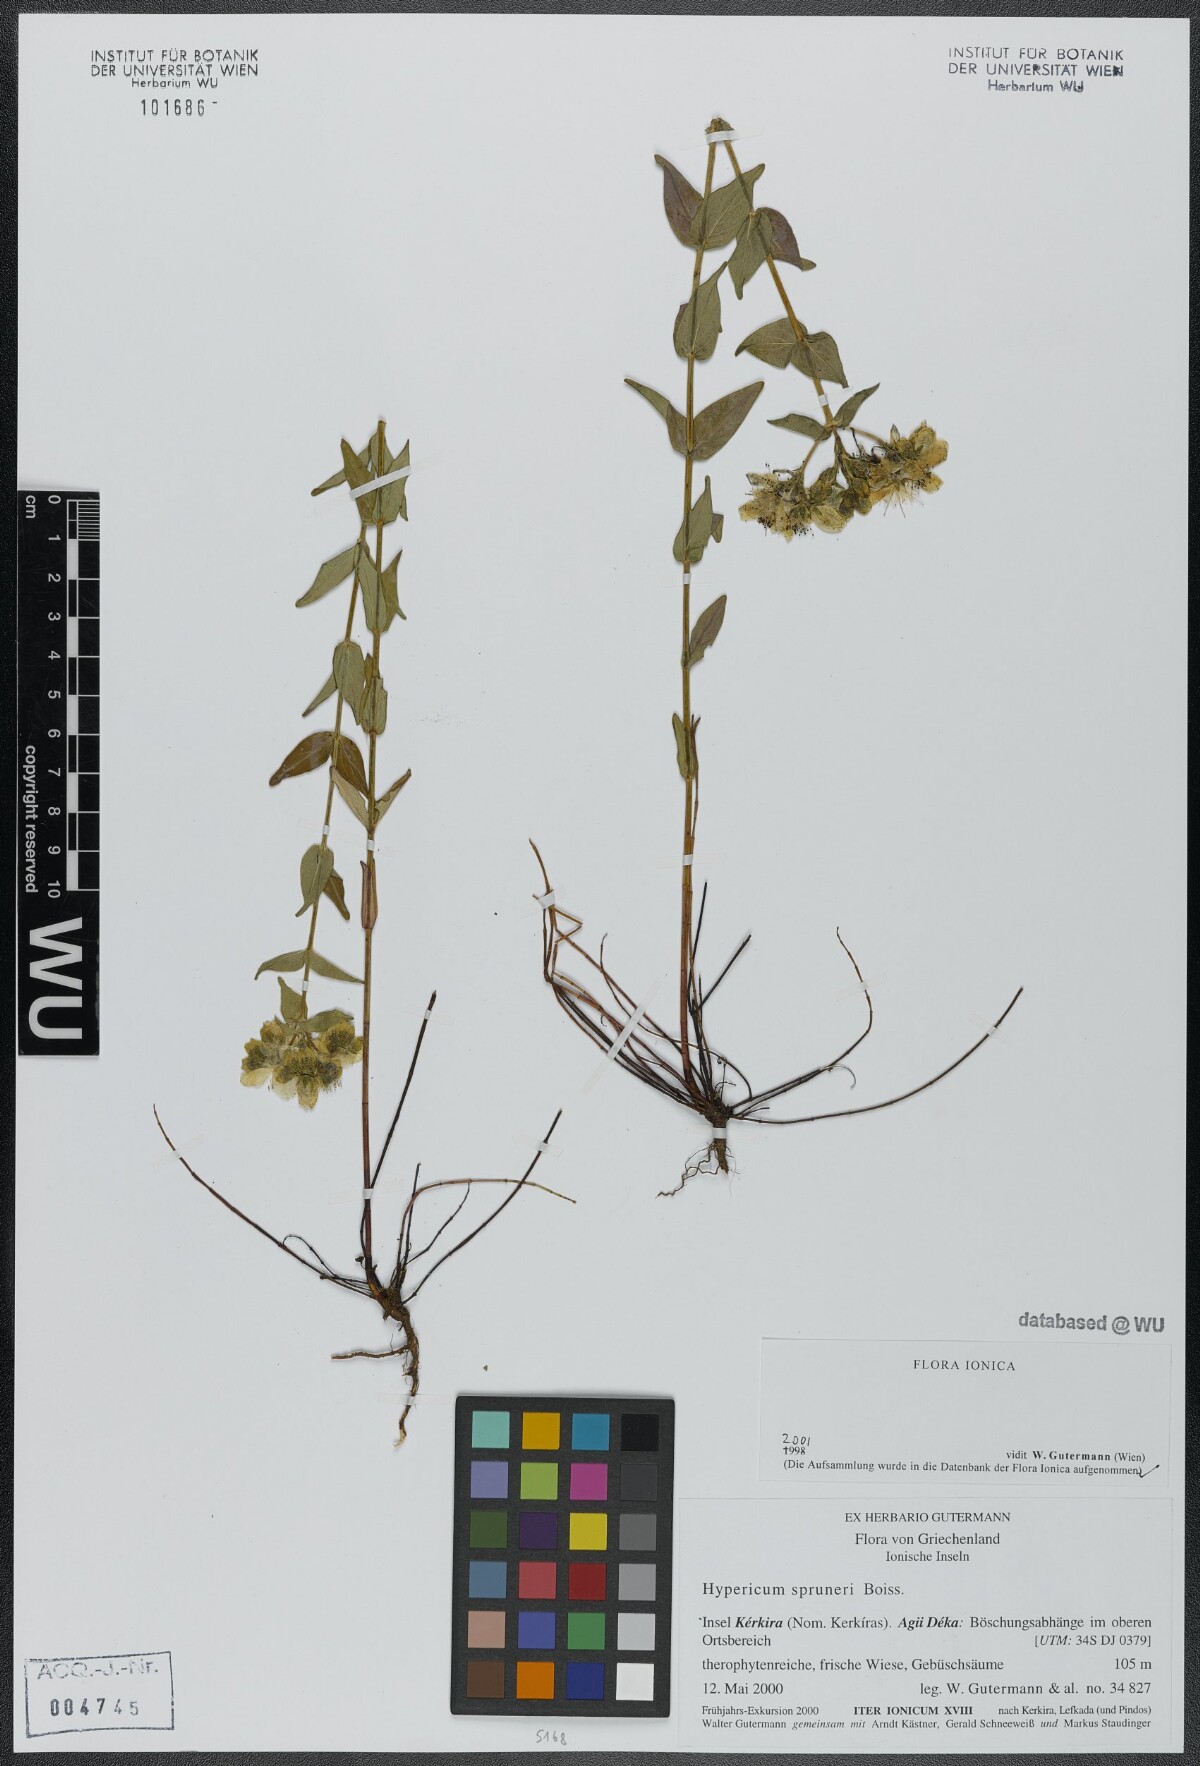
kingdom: Plantae
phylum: Tracheophyta
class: Magnoliopsida
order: Malpighiales
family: Hypericaceae
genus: Hypericum
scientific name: Hypericum spruneri
